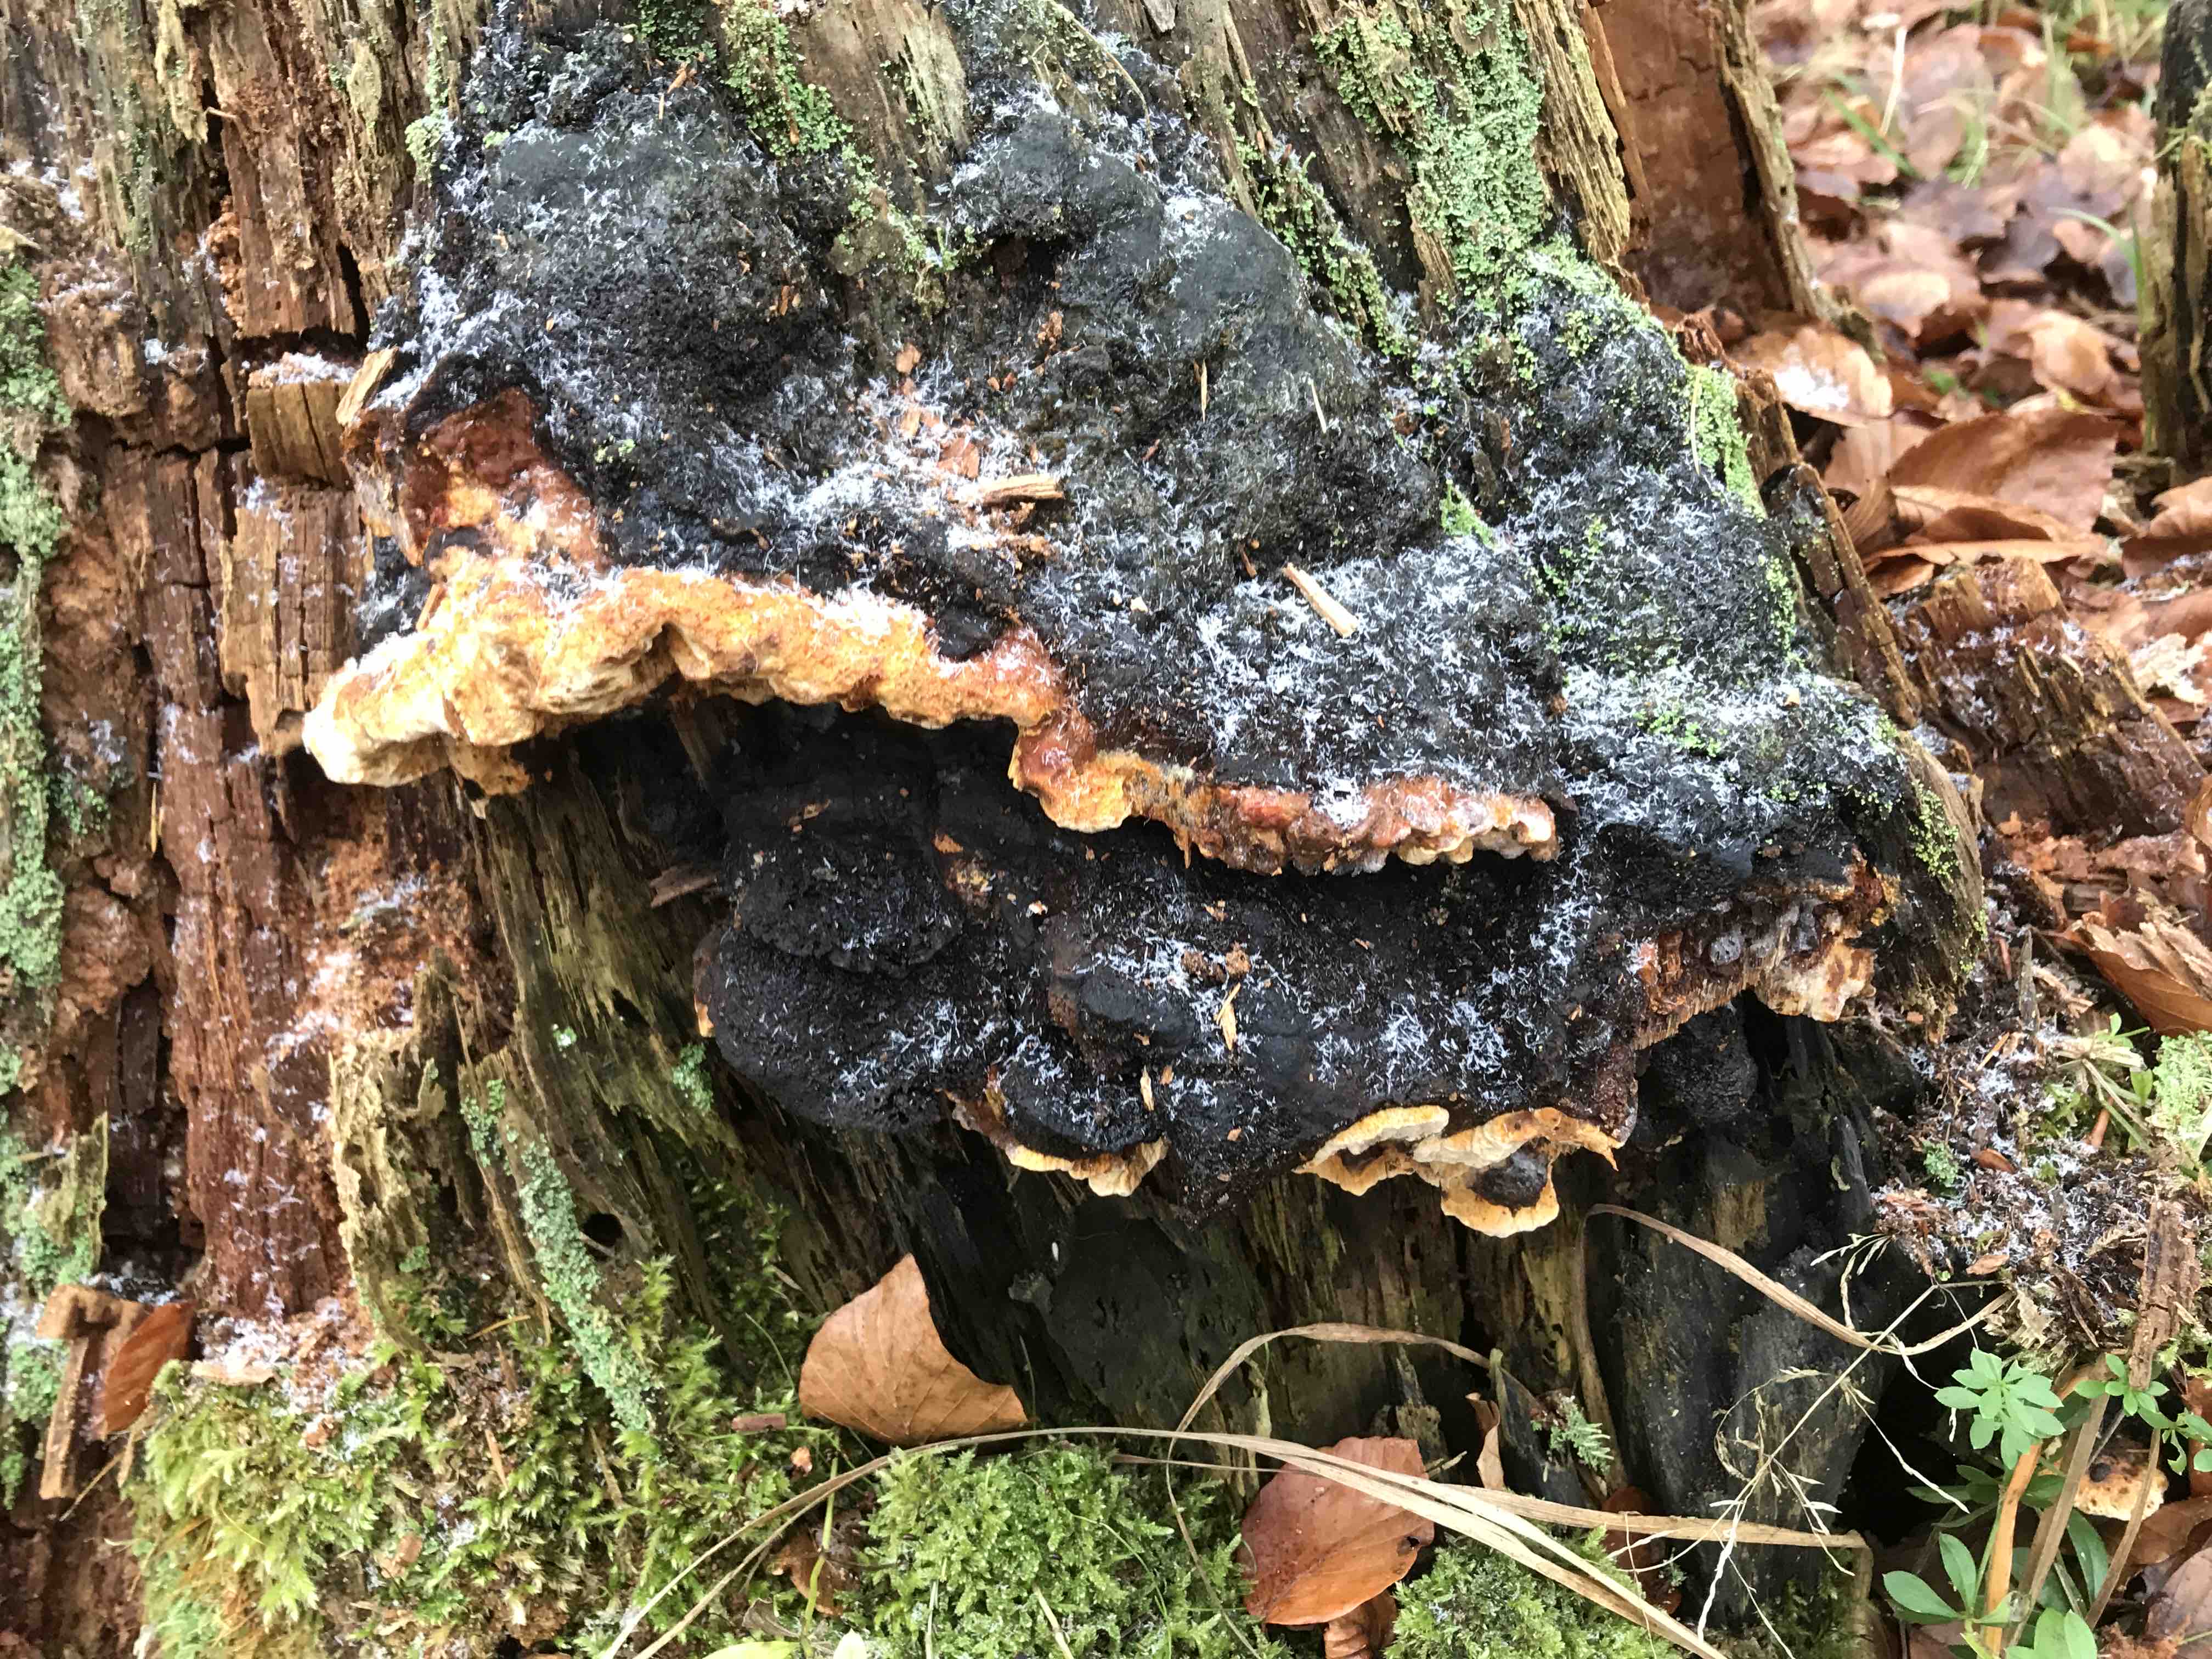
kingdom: Fungi
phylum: Basidiomycota
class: Agaricomycetes
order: Gloeophyllales
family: Gloeophyllaceae
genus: Gloeophyllum
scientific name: Gloeophyllum odoratum
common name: duftende korkhat
